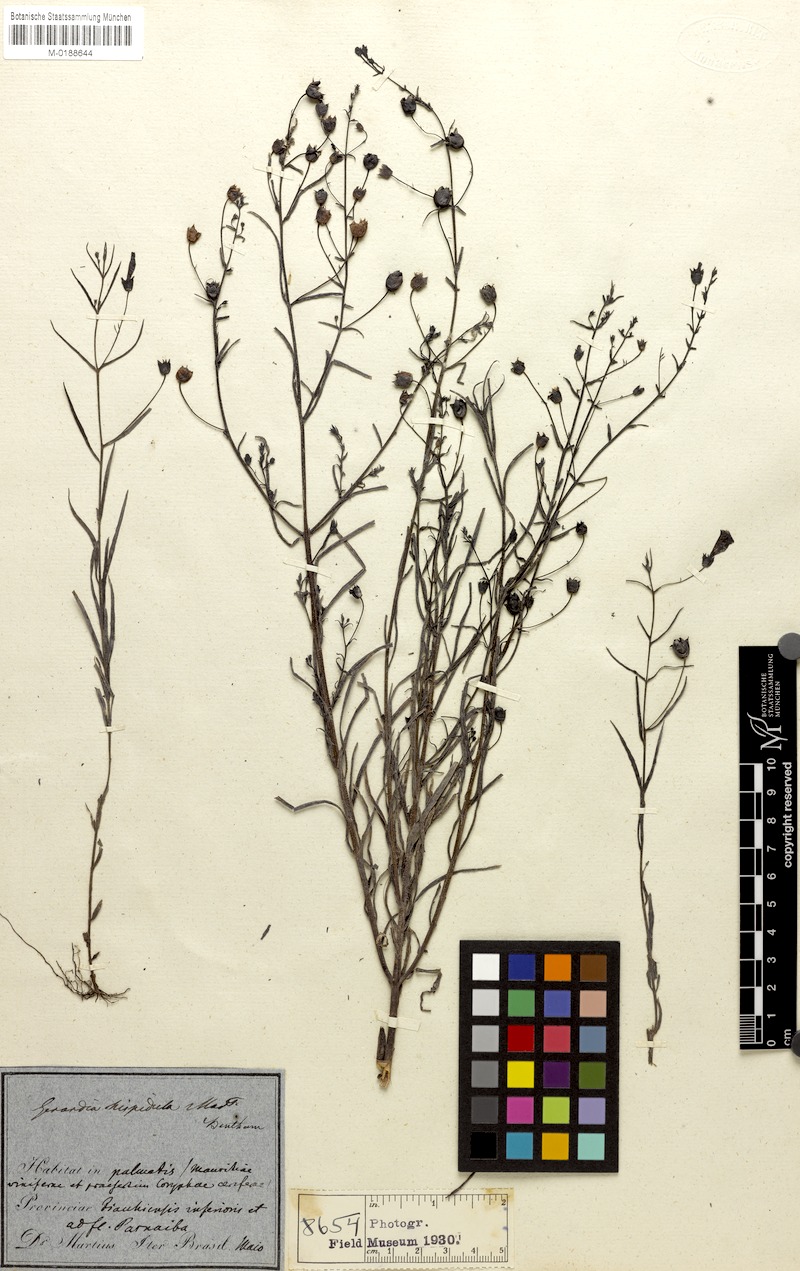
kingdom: Plantae
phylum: Tracheophyta
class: Magnoliopsida
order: Lamiales
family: Orobanchaceae
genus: Agalinis
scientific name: Agalinis hispidula
